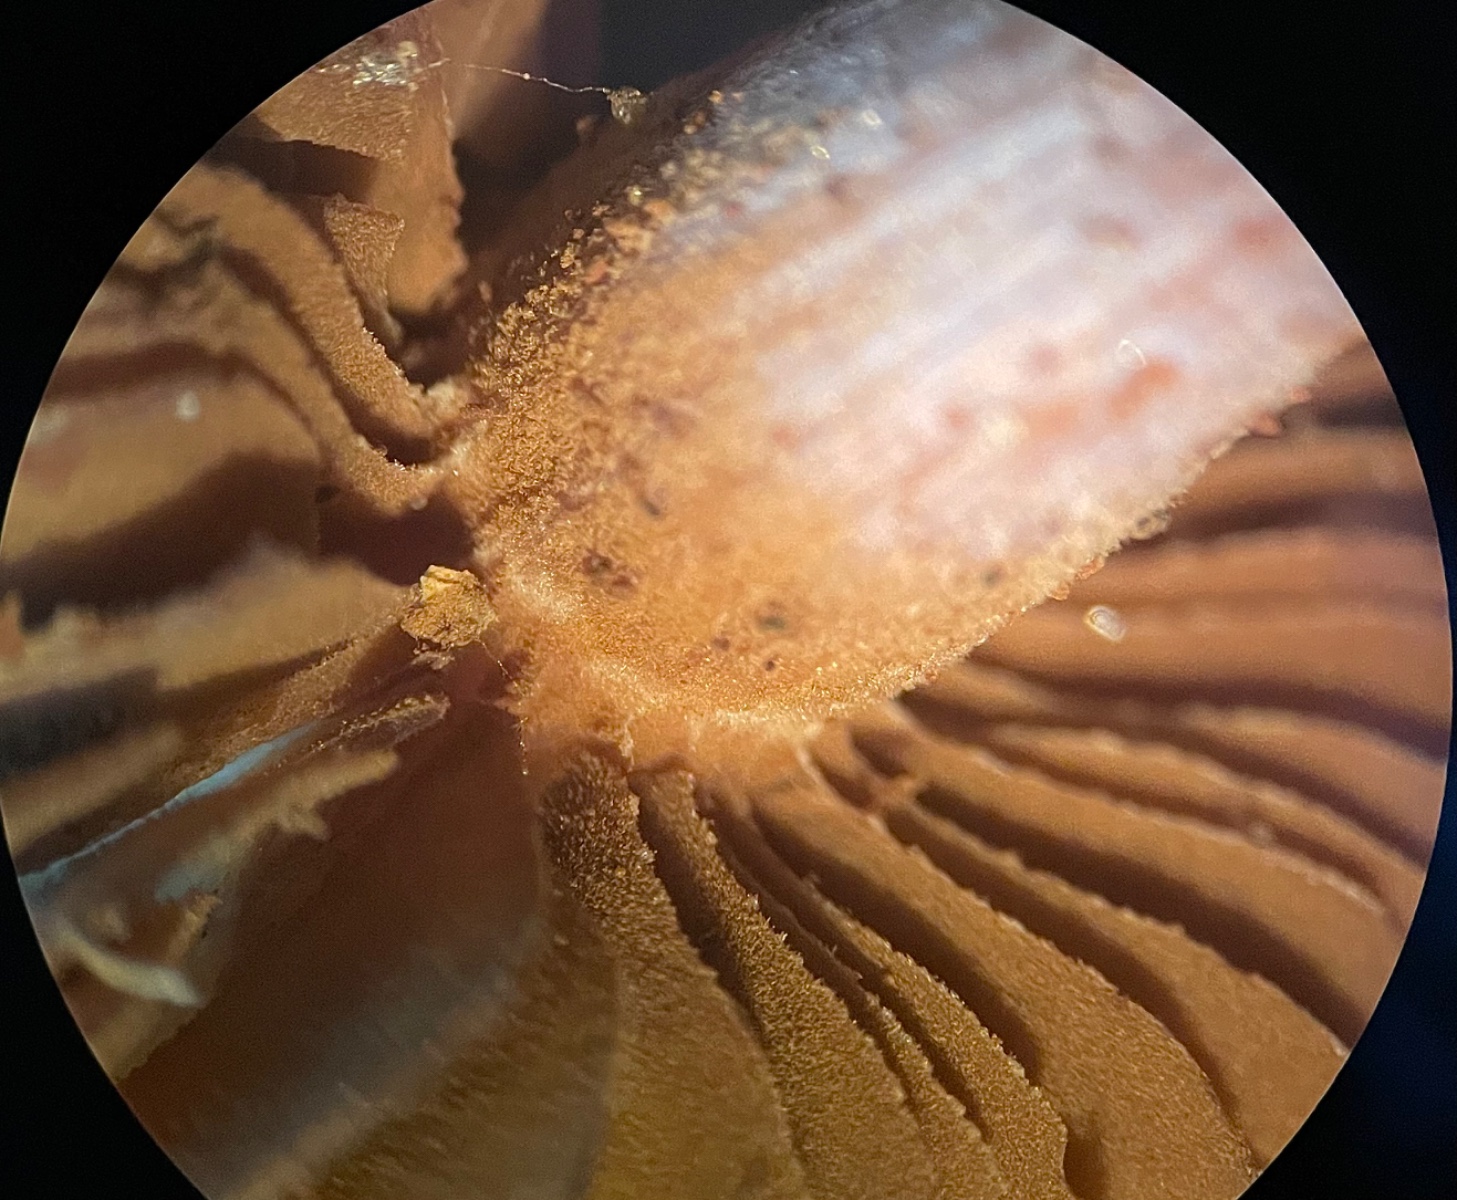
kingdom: Fungi
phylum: Basidiomycota
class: Agaricomycetes
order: Agaricales
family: Inocybaceae
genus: Inocybe
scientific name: Inocybe
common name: trævlhat
